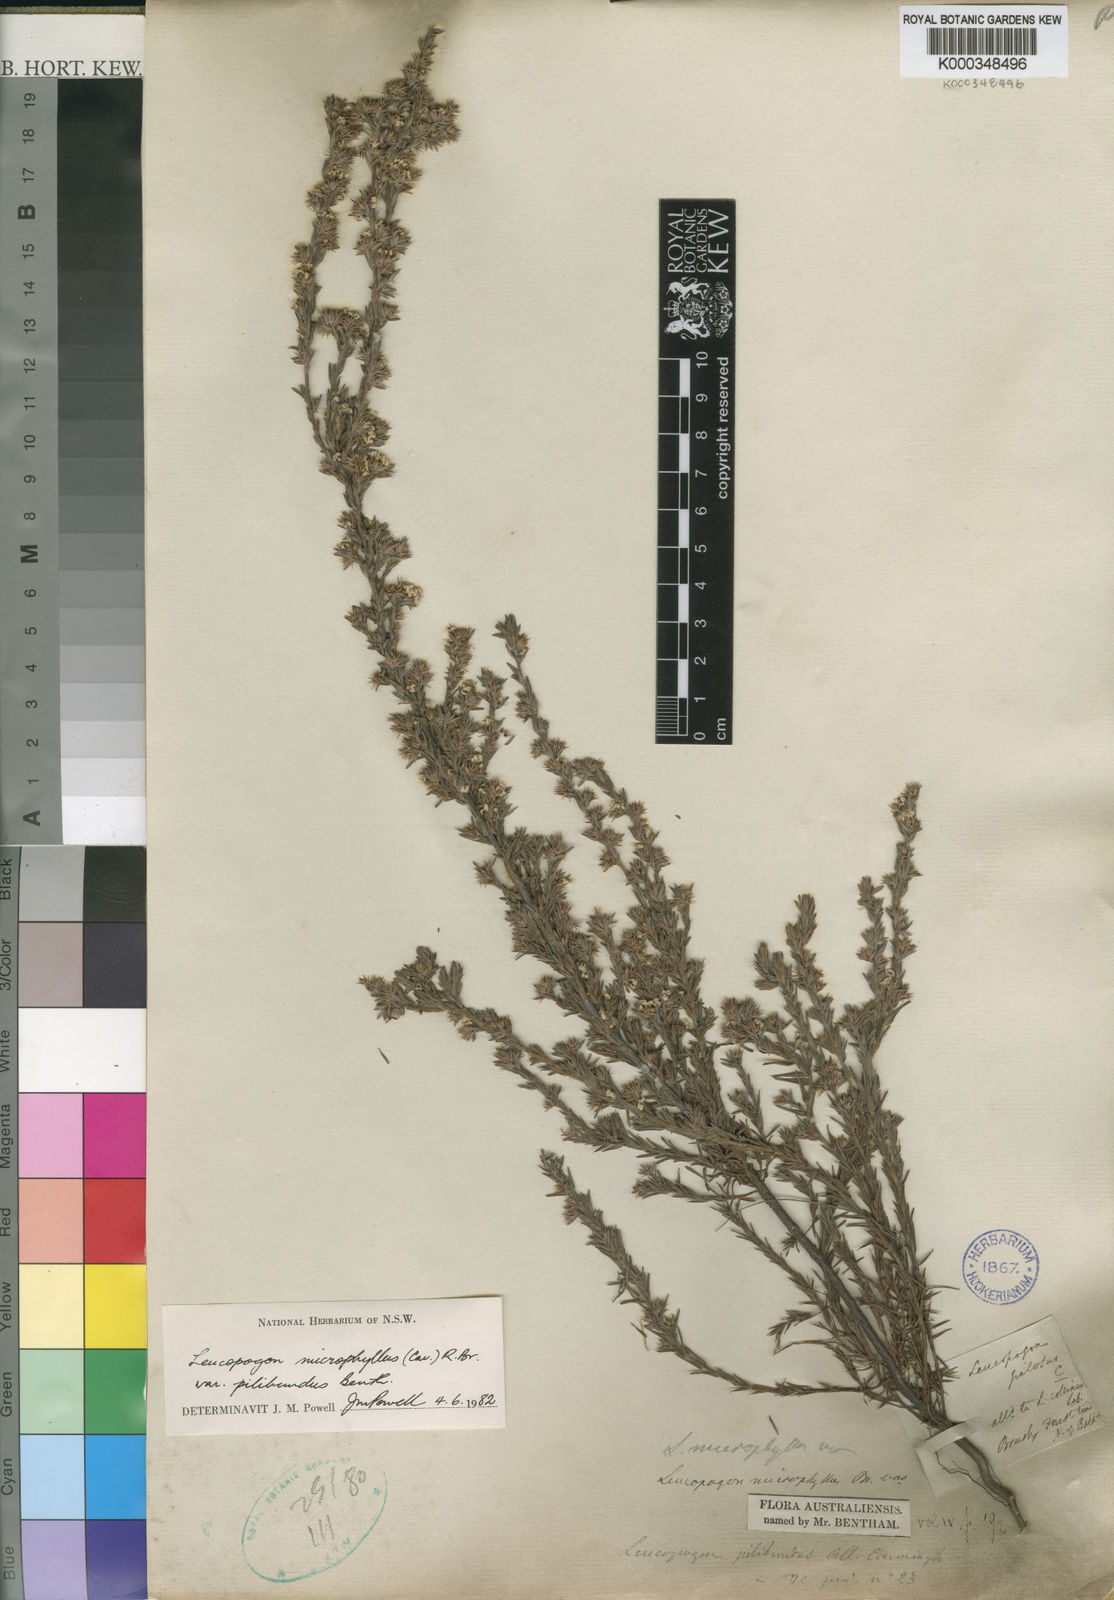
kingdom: Plantae
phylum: Tracheophyta
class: Magnoliopsida
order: Ericales
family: Ericaceae
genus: Leucopogon
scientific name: Leucopogon microphyllus
